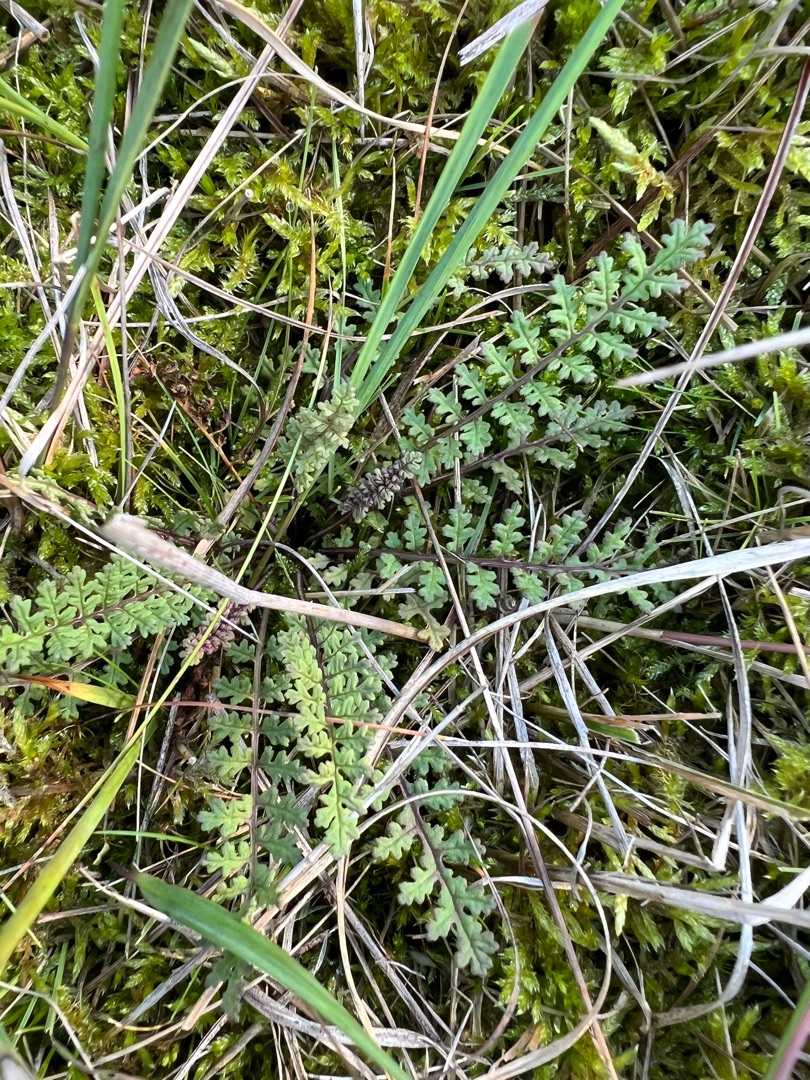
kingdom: Plantae
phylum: Tracheophyta
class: Magnoliopsida
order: Lamiales
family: Orobanchaceae
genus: Pedicularis
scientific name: Pedicularis sylvatica
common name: Mose-troldurt
